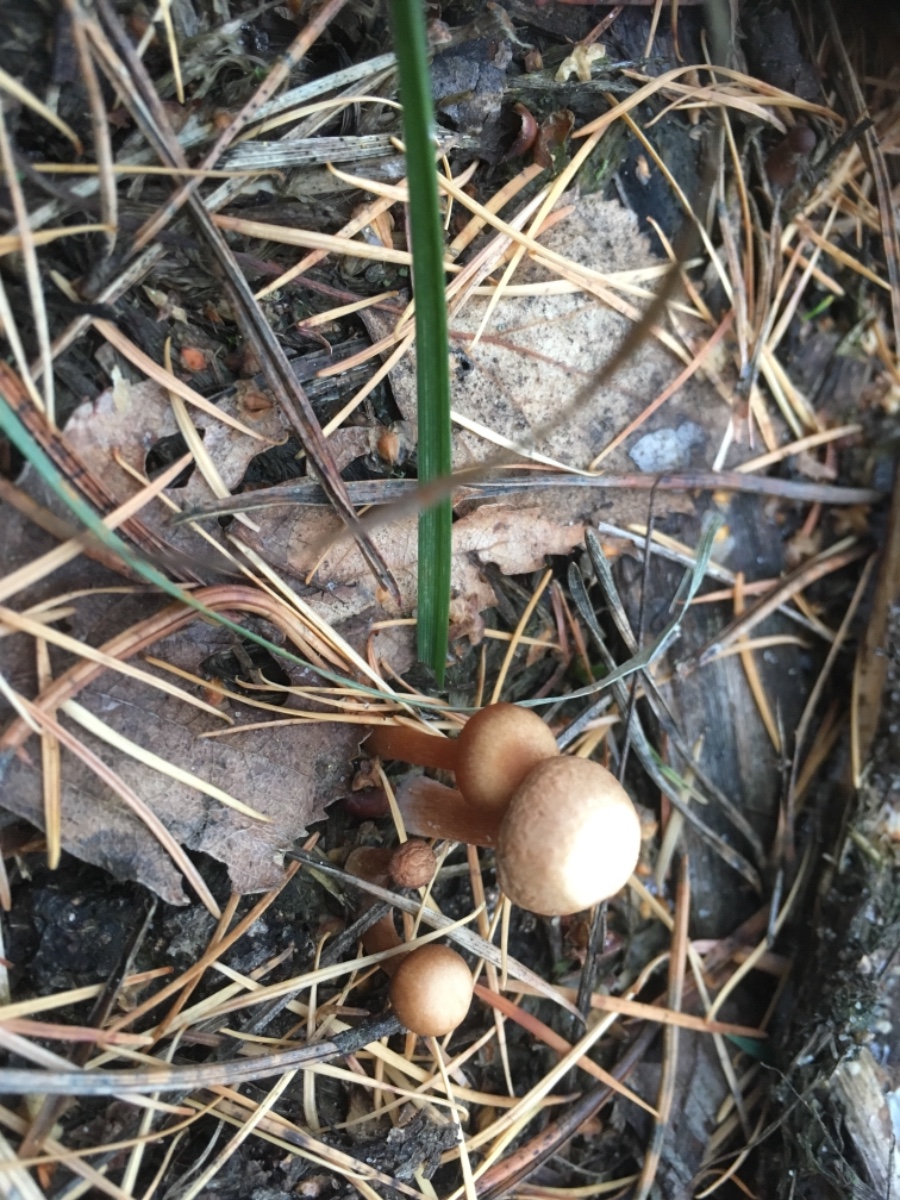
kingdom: Fungi
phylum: Basidiomycota
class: Agaricomycetes
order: Agaricales
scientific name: Agaricales
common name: champignonordenen
